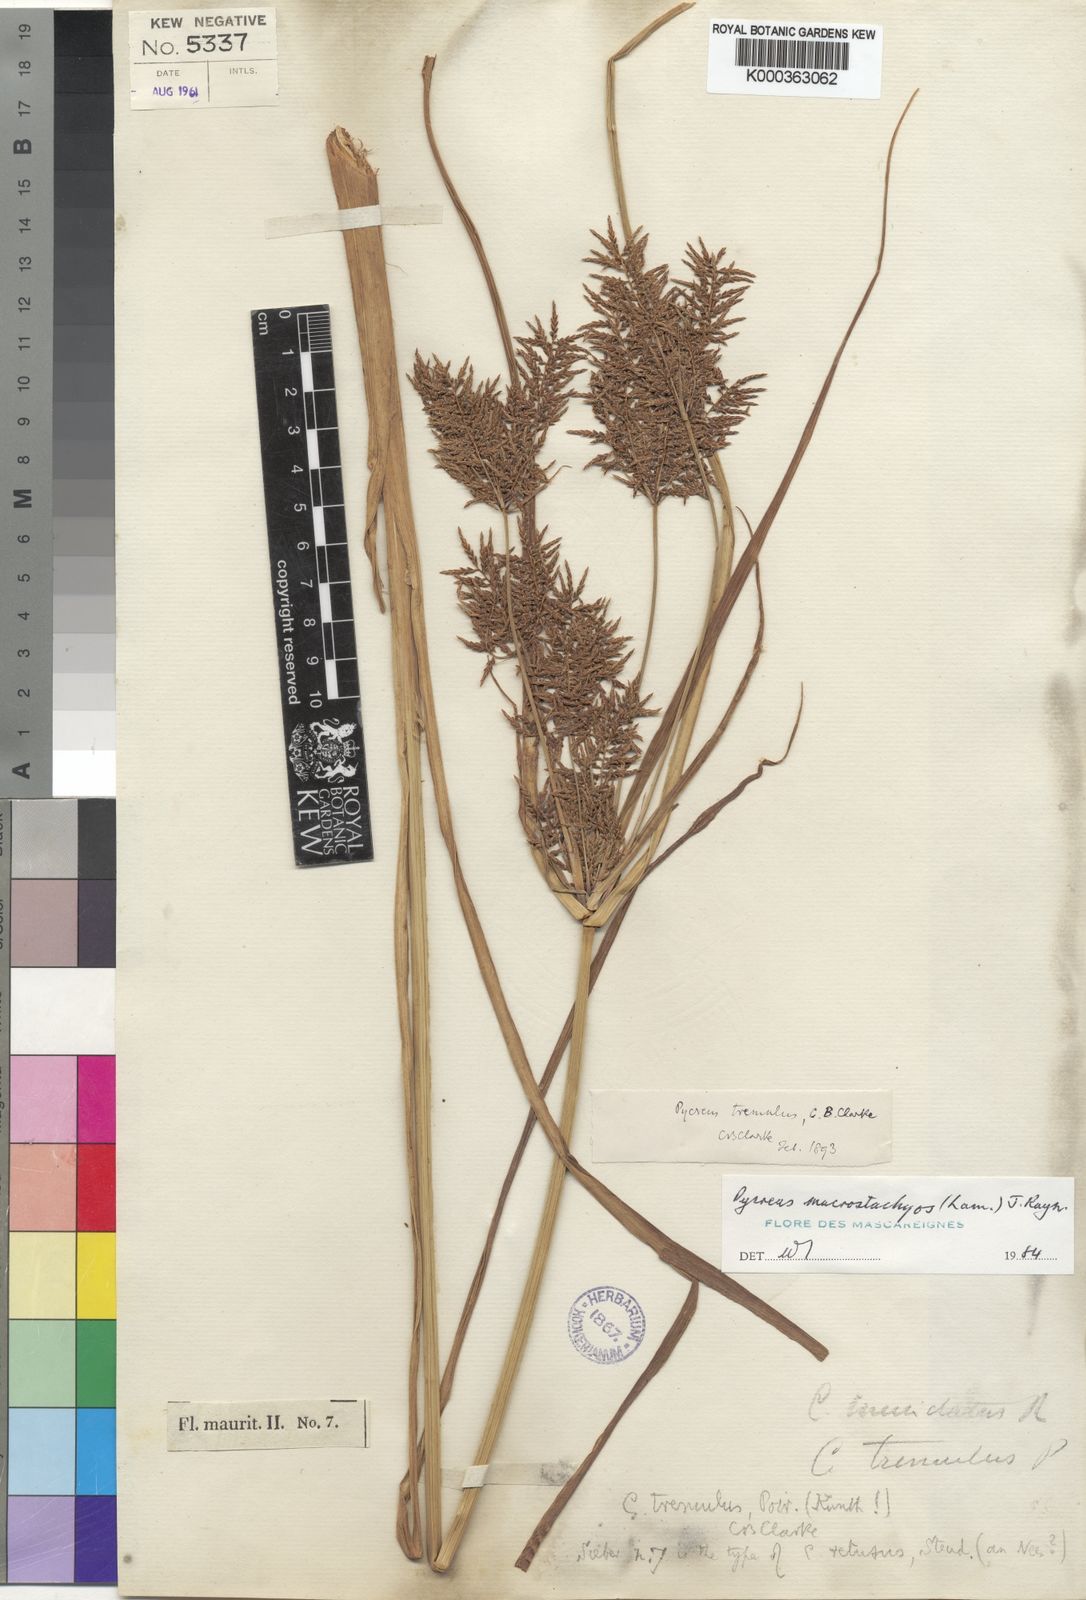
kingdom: Plantae
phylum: Tracheophyta
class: Liliopsida
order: Poales
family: Cyperaceae
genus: Cyperus
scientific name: Cyperus macrostachyos
